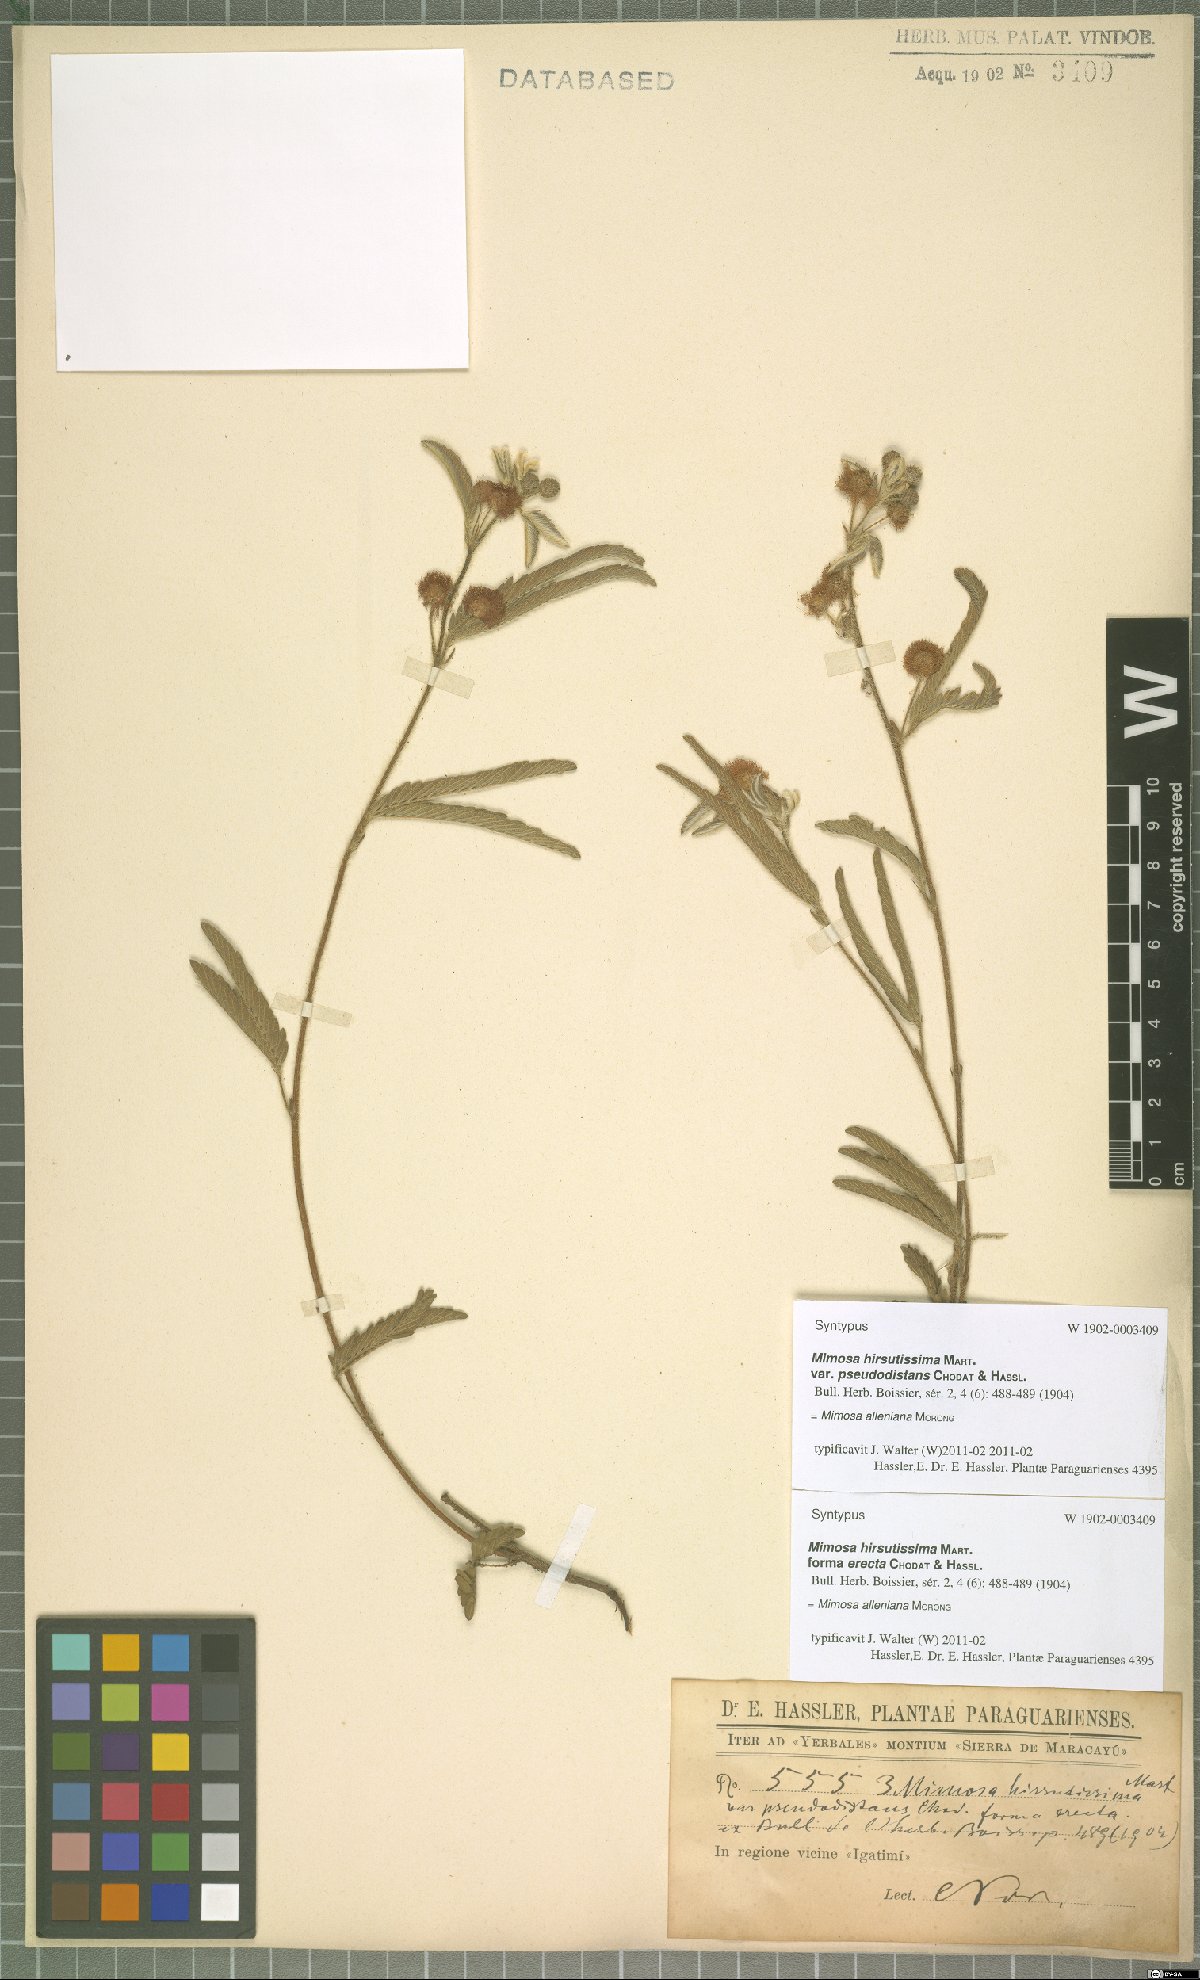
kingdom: Plantae
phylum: Tracheophyta
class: Magnoliopsida
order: Fabales
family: Fabaceae
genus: Mimosa
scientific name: Mimosa alleniana
